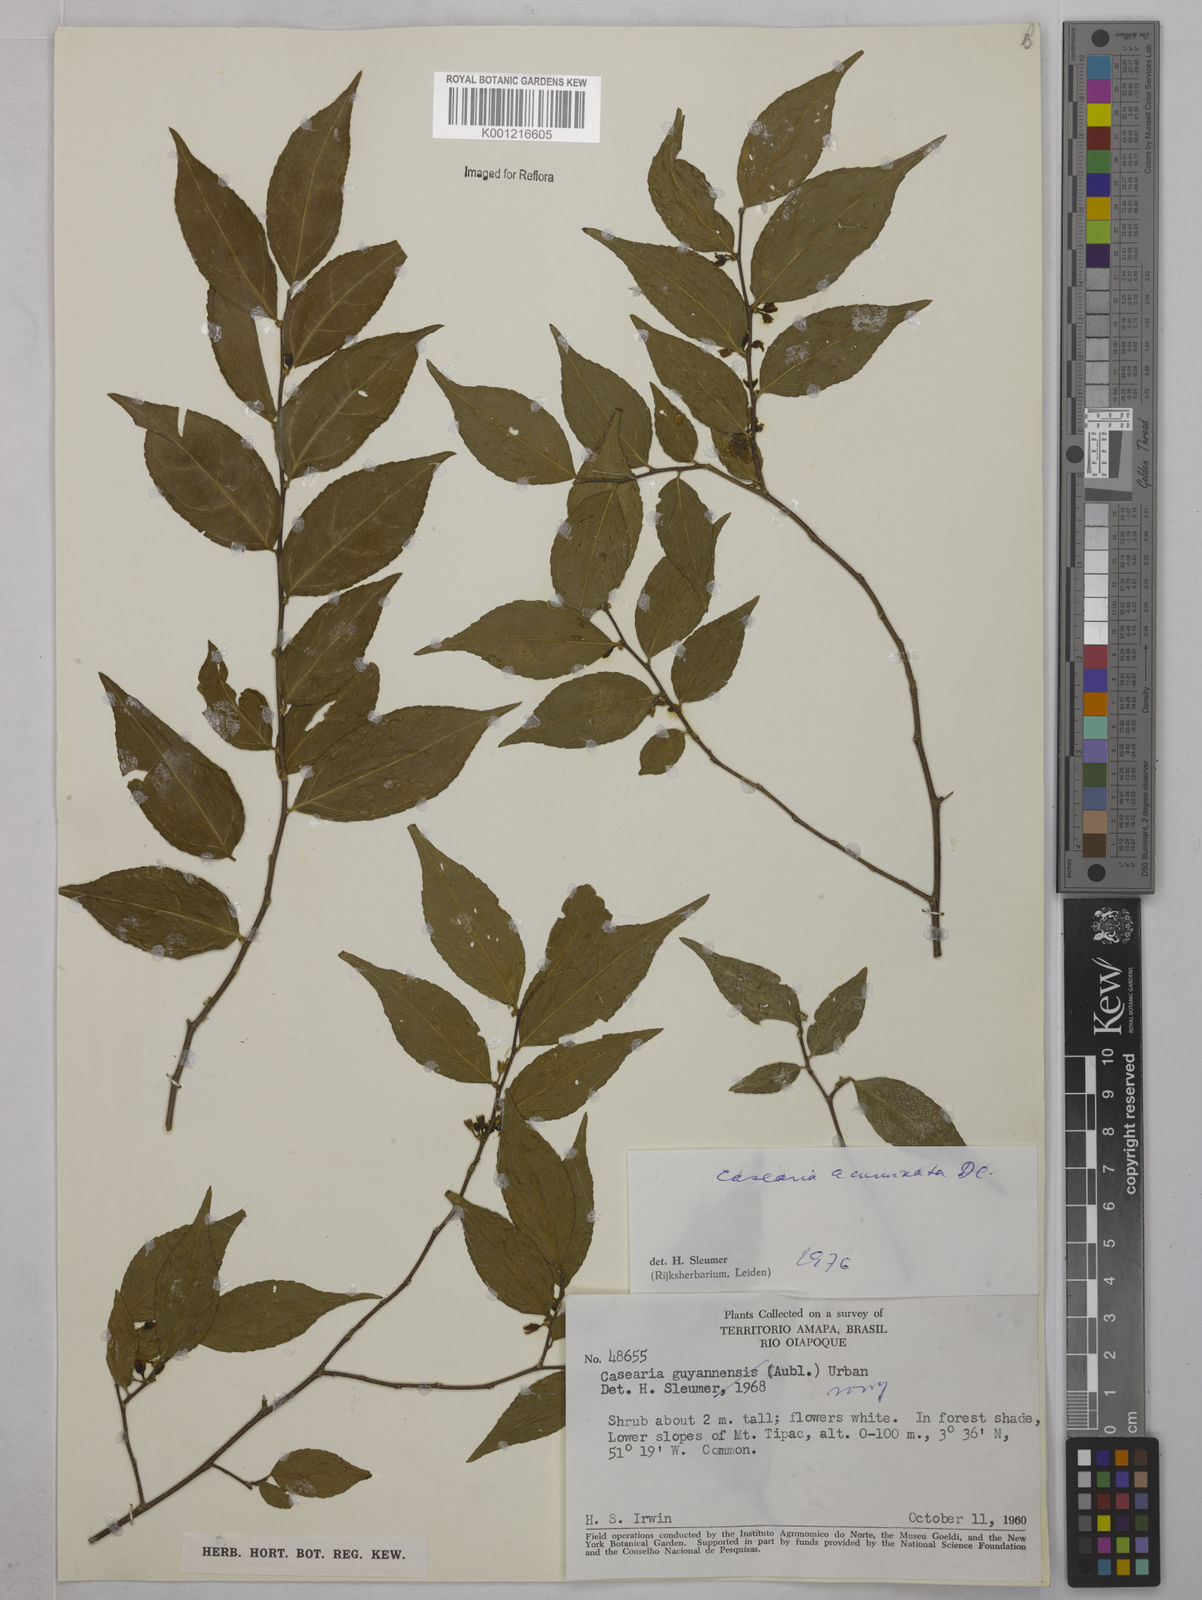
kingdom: Plantae
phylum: Tracheophyta
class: Magnoliopsida
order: Malpighiales
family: Salicaceae
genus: Casearia
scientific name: Casearia acuminata
